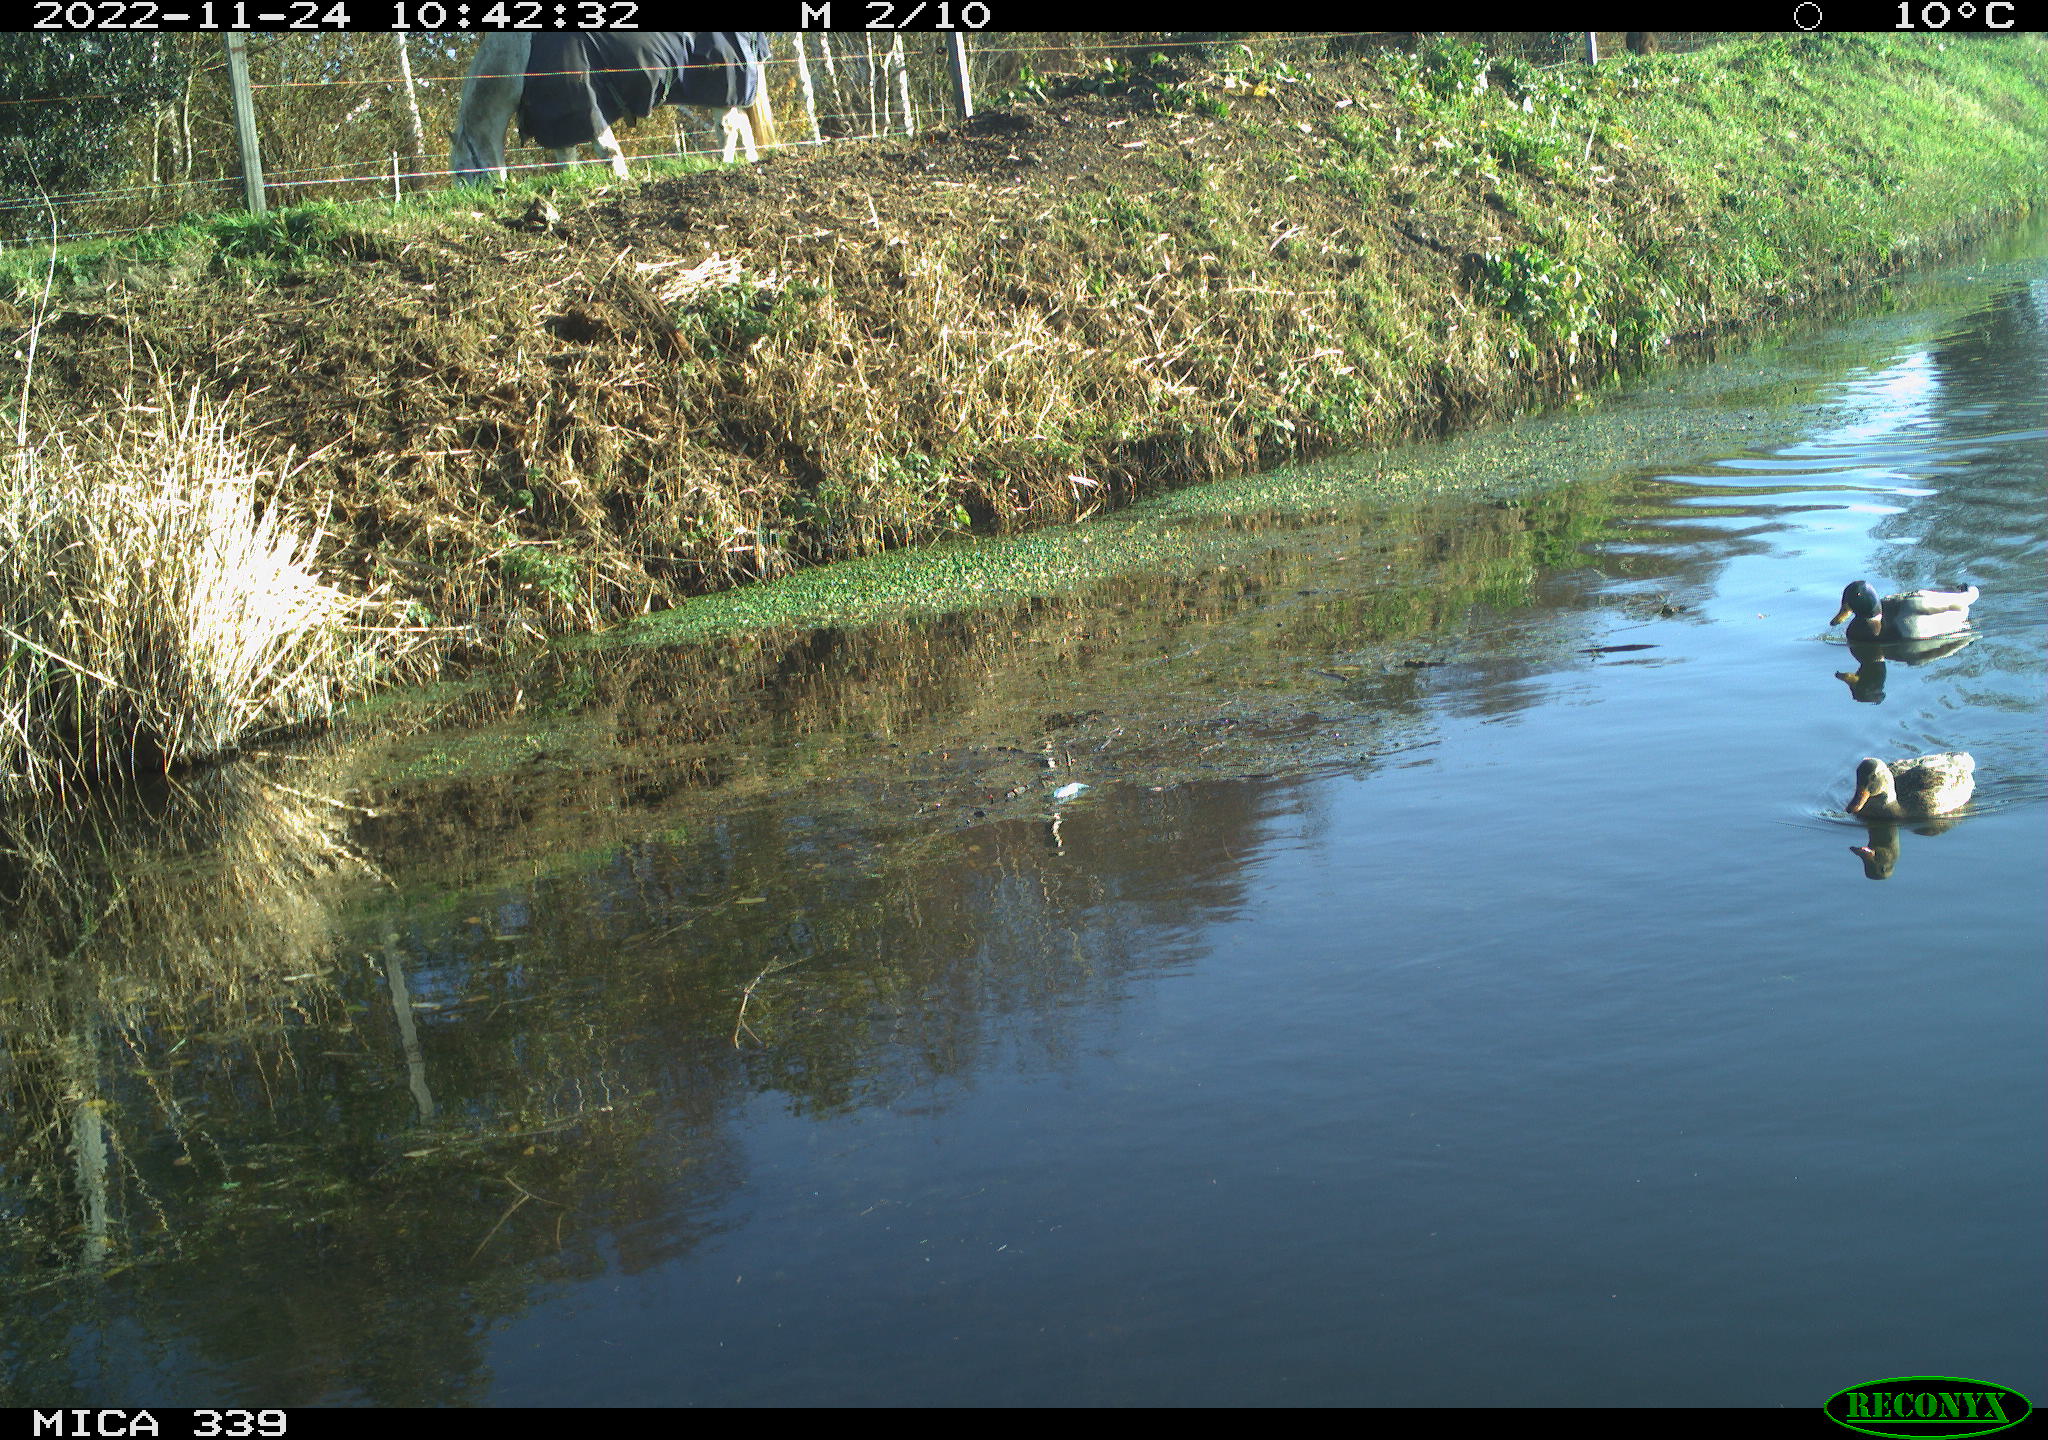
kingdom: Animalia
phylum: Chordata
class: Aves
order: Anseriformes
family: Anatidae
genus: Anas
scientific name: Anas
